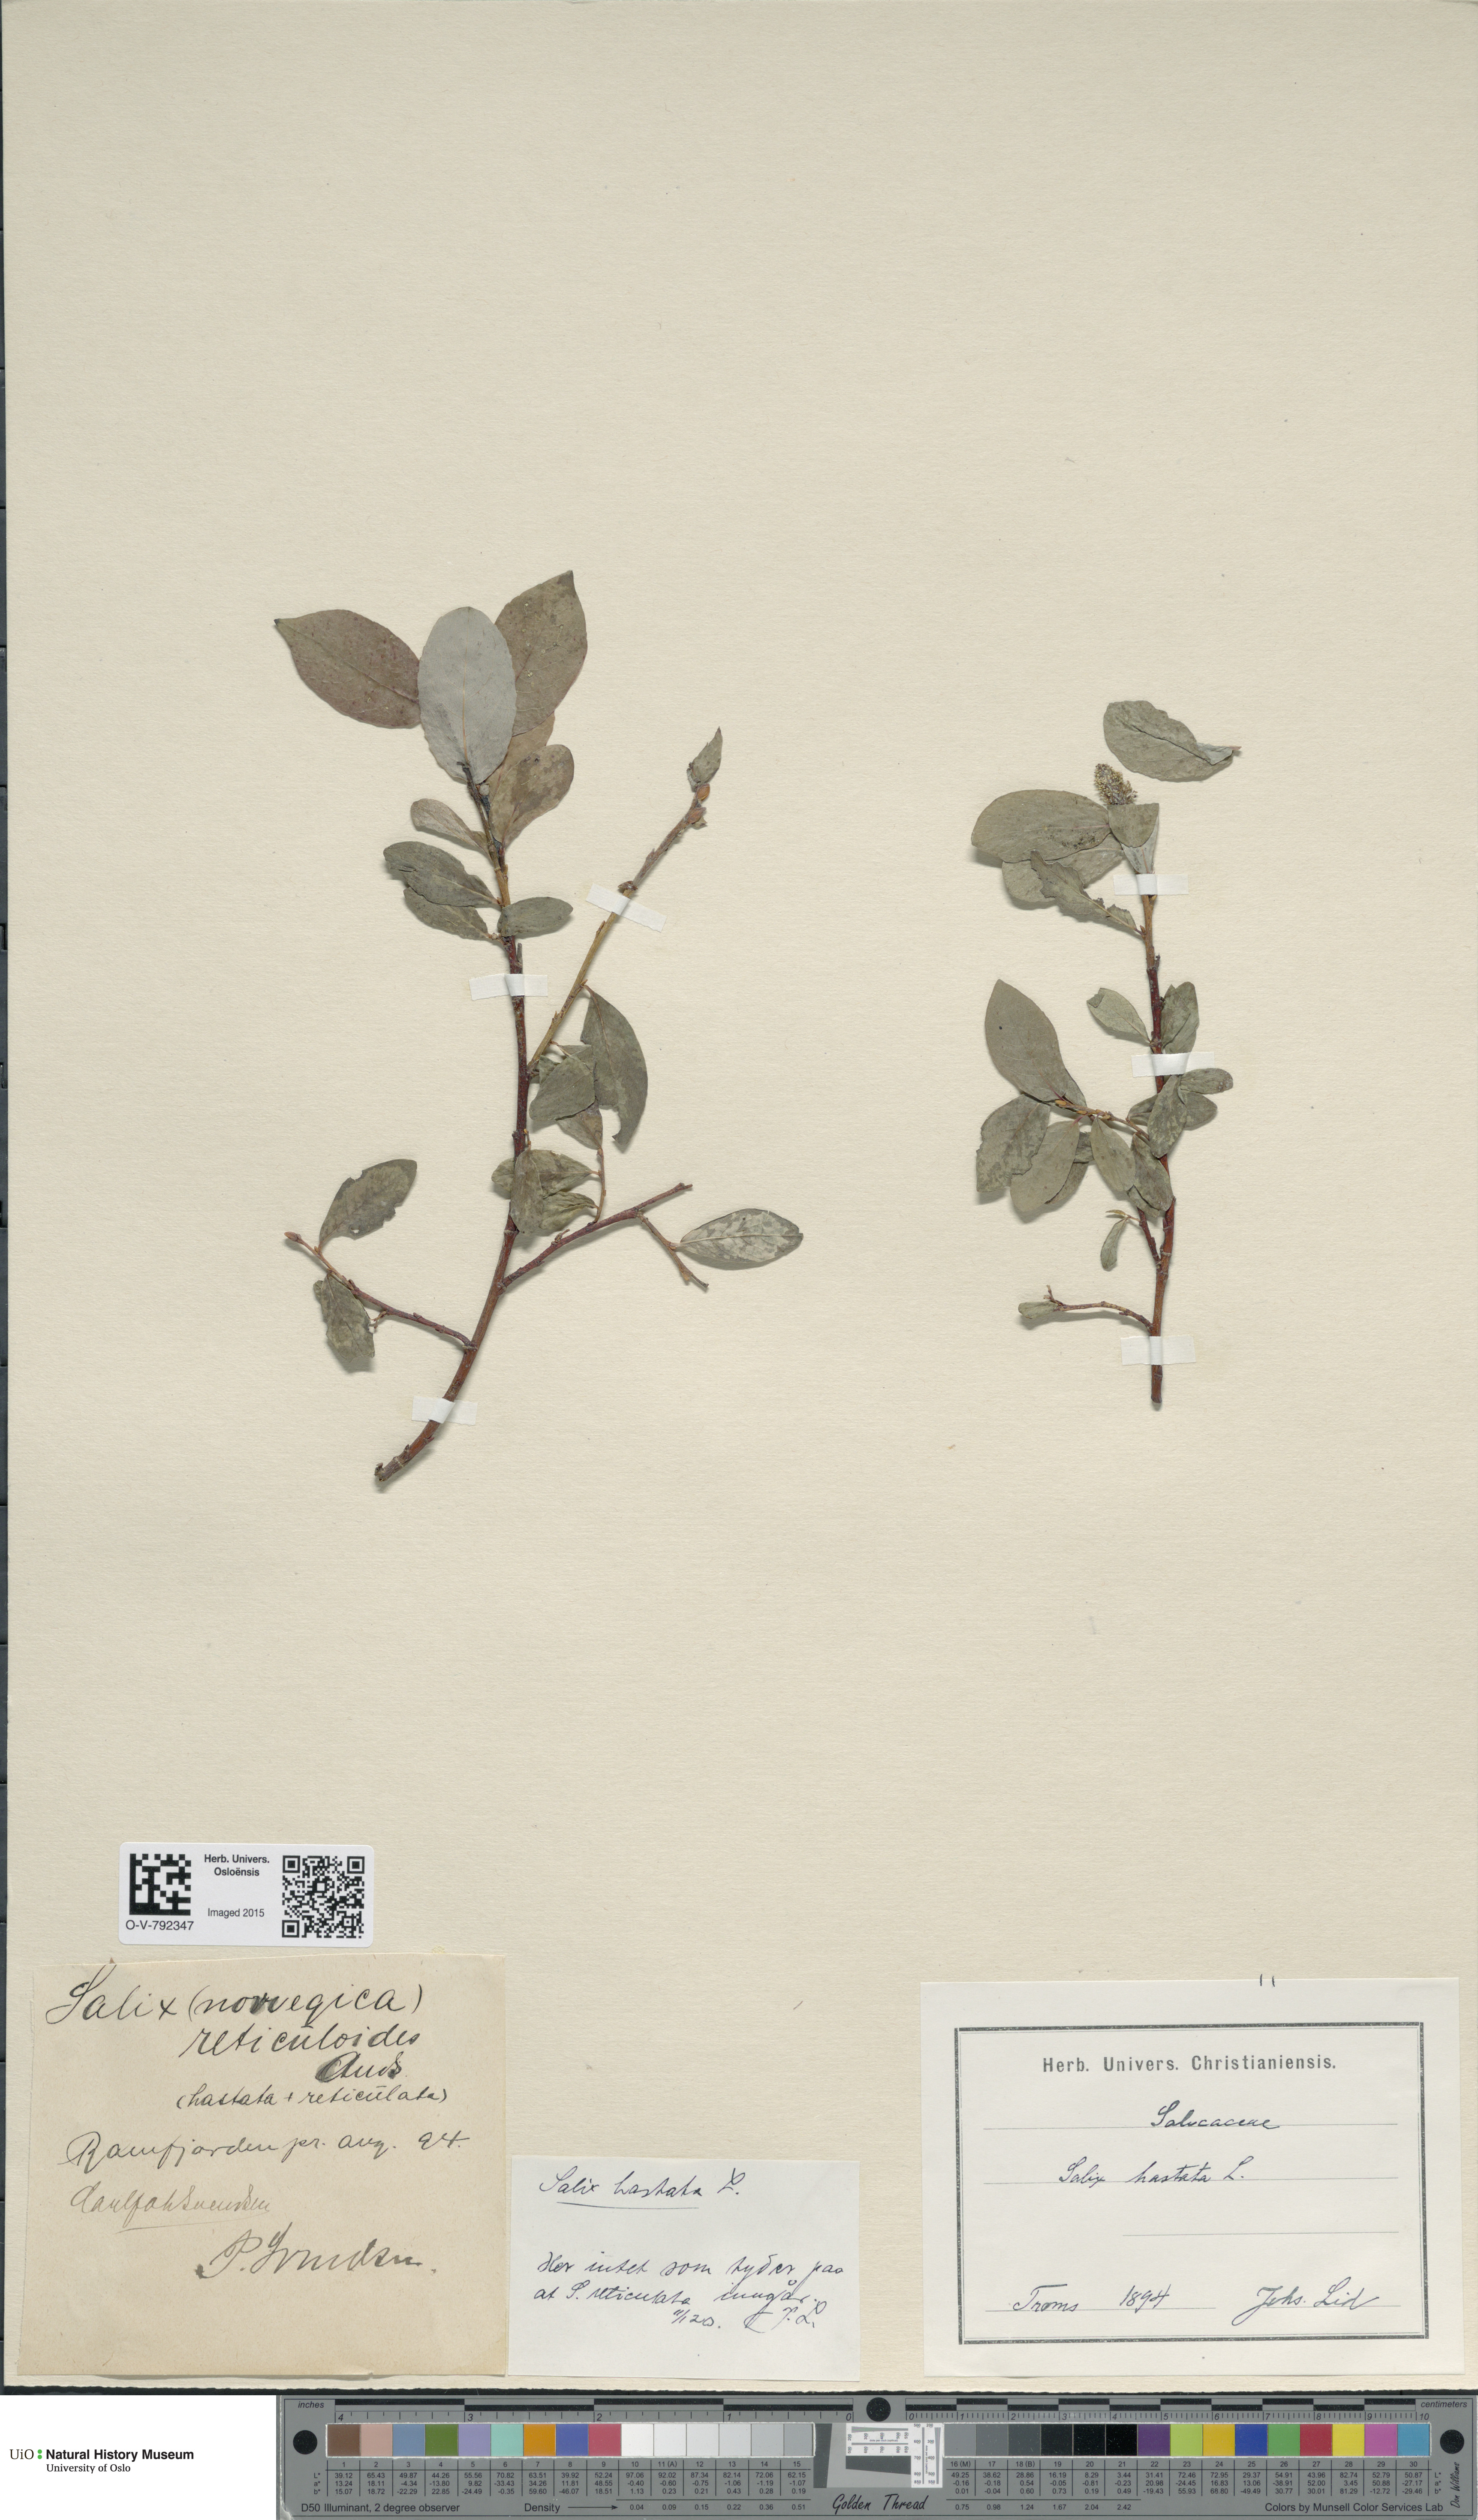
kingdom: Plantae
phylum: Tracheophyta
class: Magnoliopsida
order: Malpighiales
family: Salicaceae
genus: Salix
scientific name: Salix hastata
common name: Halberd willow
